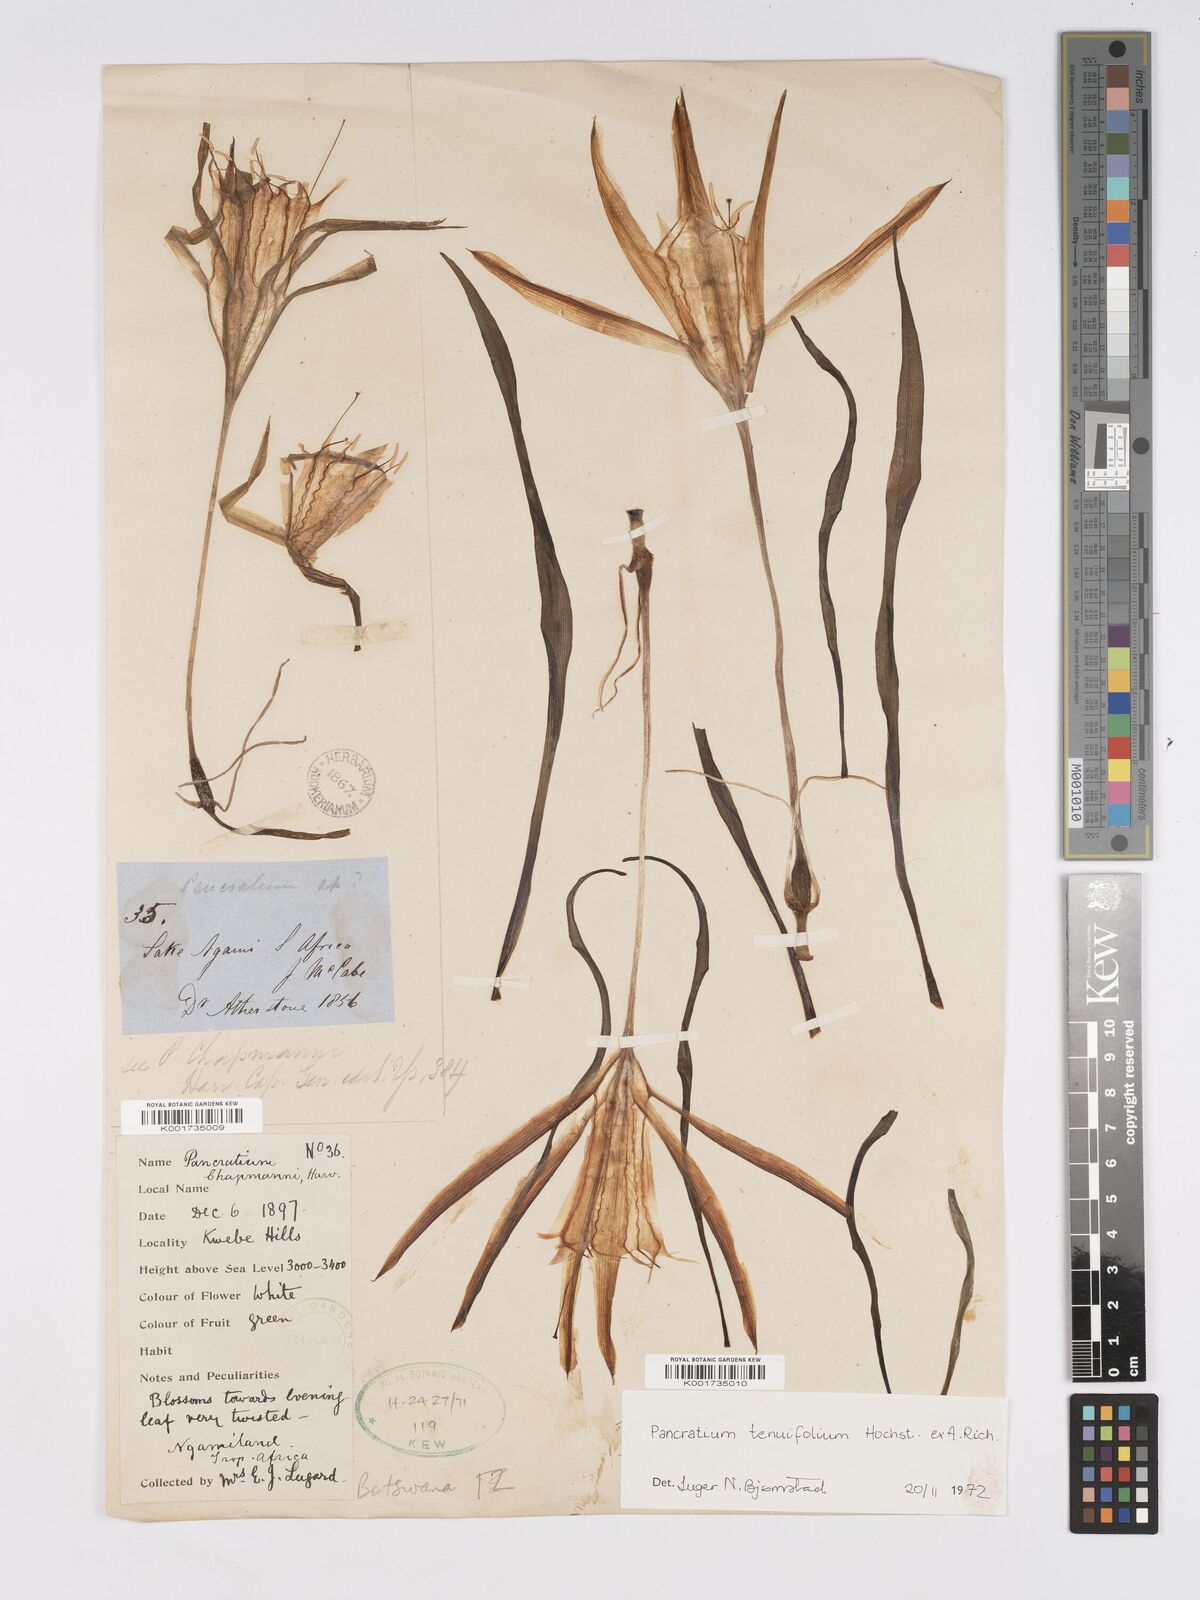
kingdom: Plantae
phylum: Tracheophyta
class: Liliopsida
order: Asparagales
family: Amaryllidaceae
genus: Pancratium
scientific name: Pancratium tenuifolium
